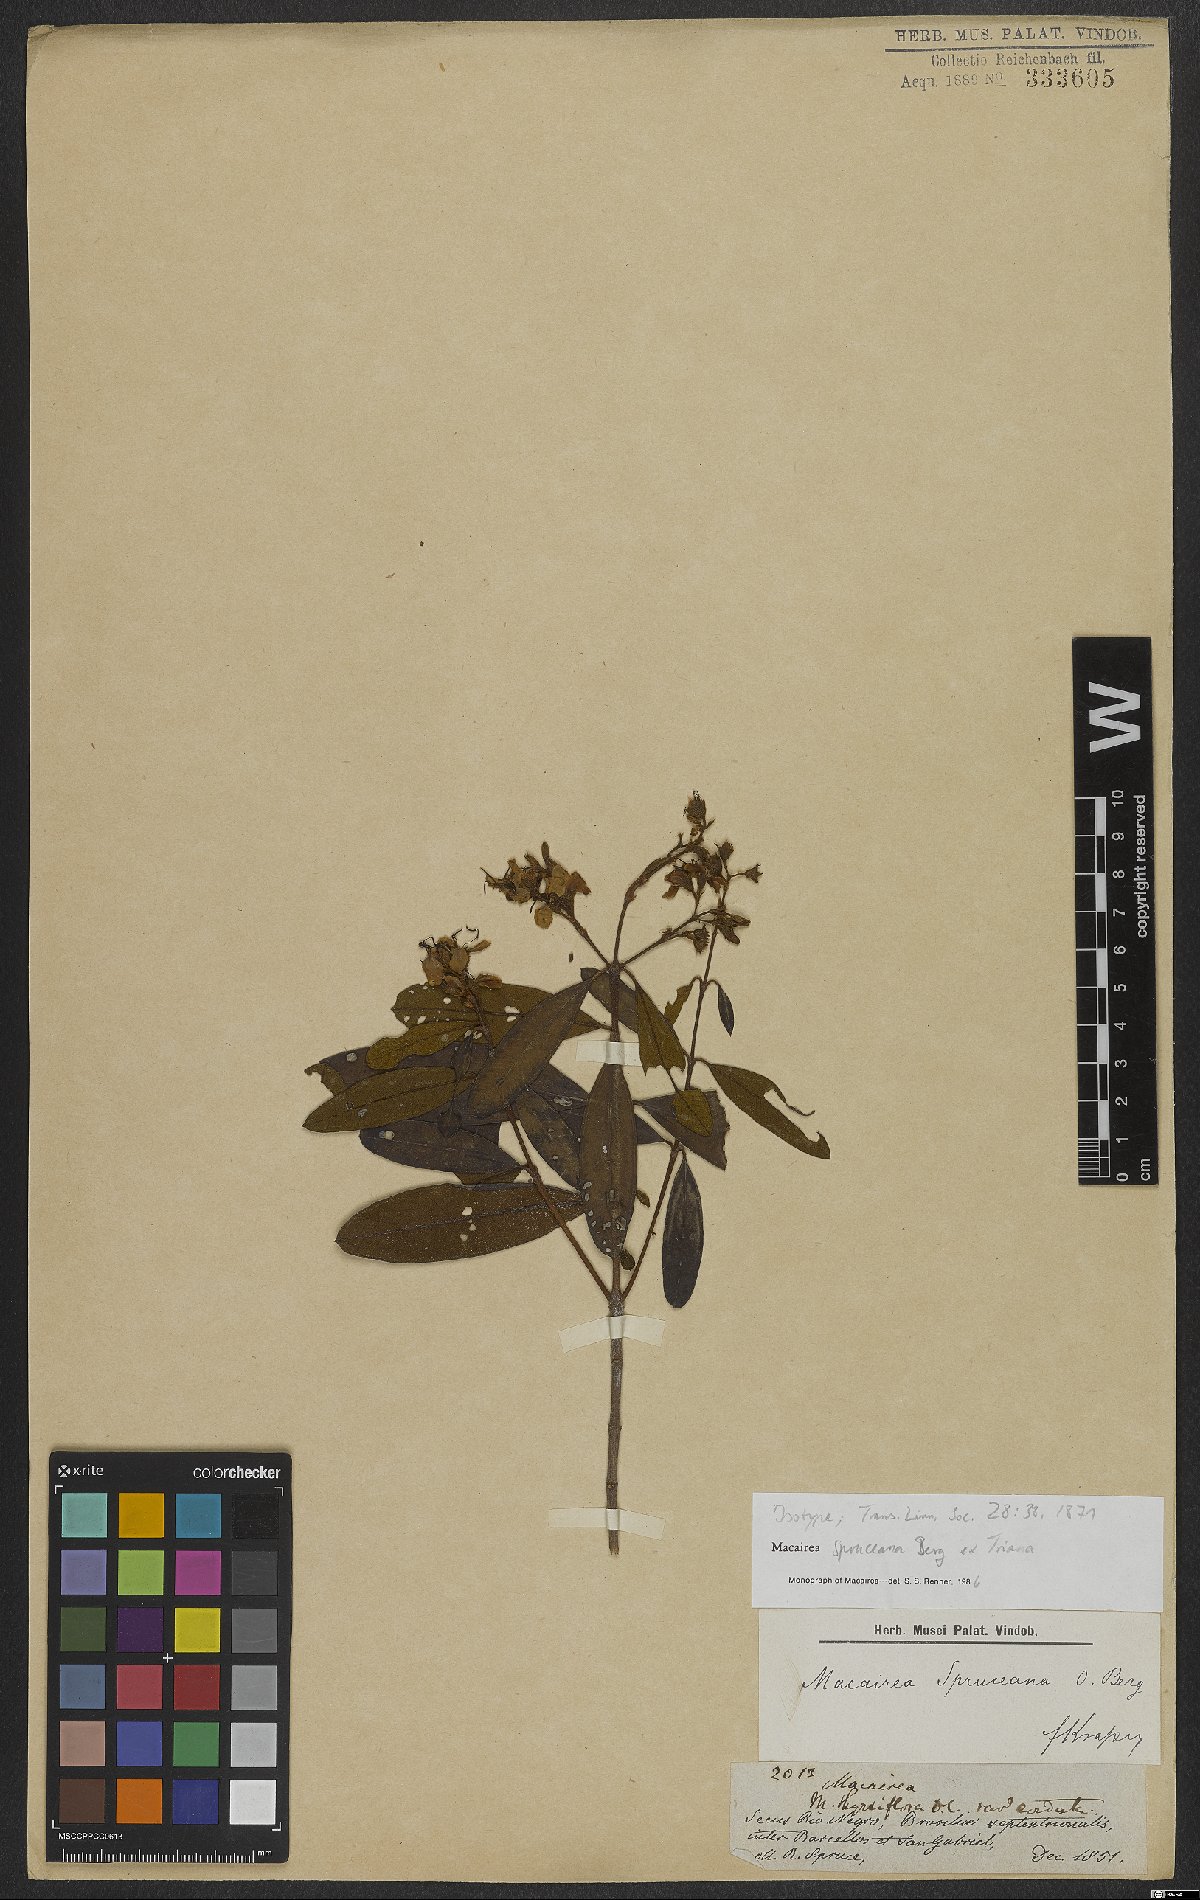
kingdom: Plantae
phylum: Tracheophyta
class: Magnoliopsida
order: Myrtales
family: Melastomataceae
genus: Macairea
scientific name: Macairea spruceana
